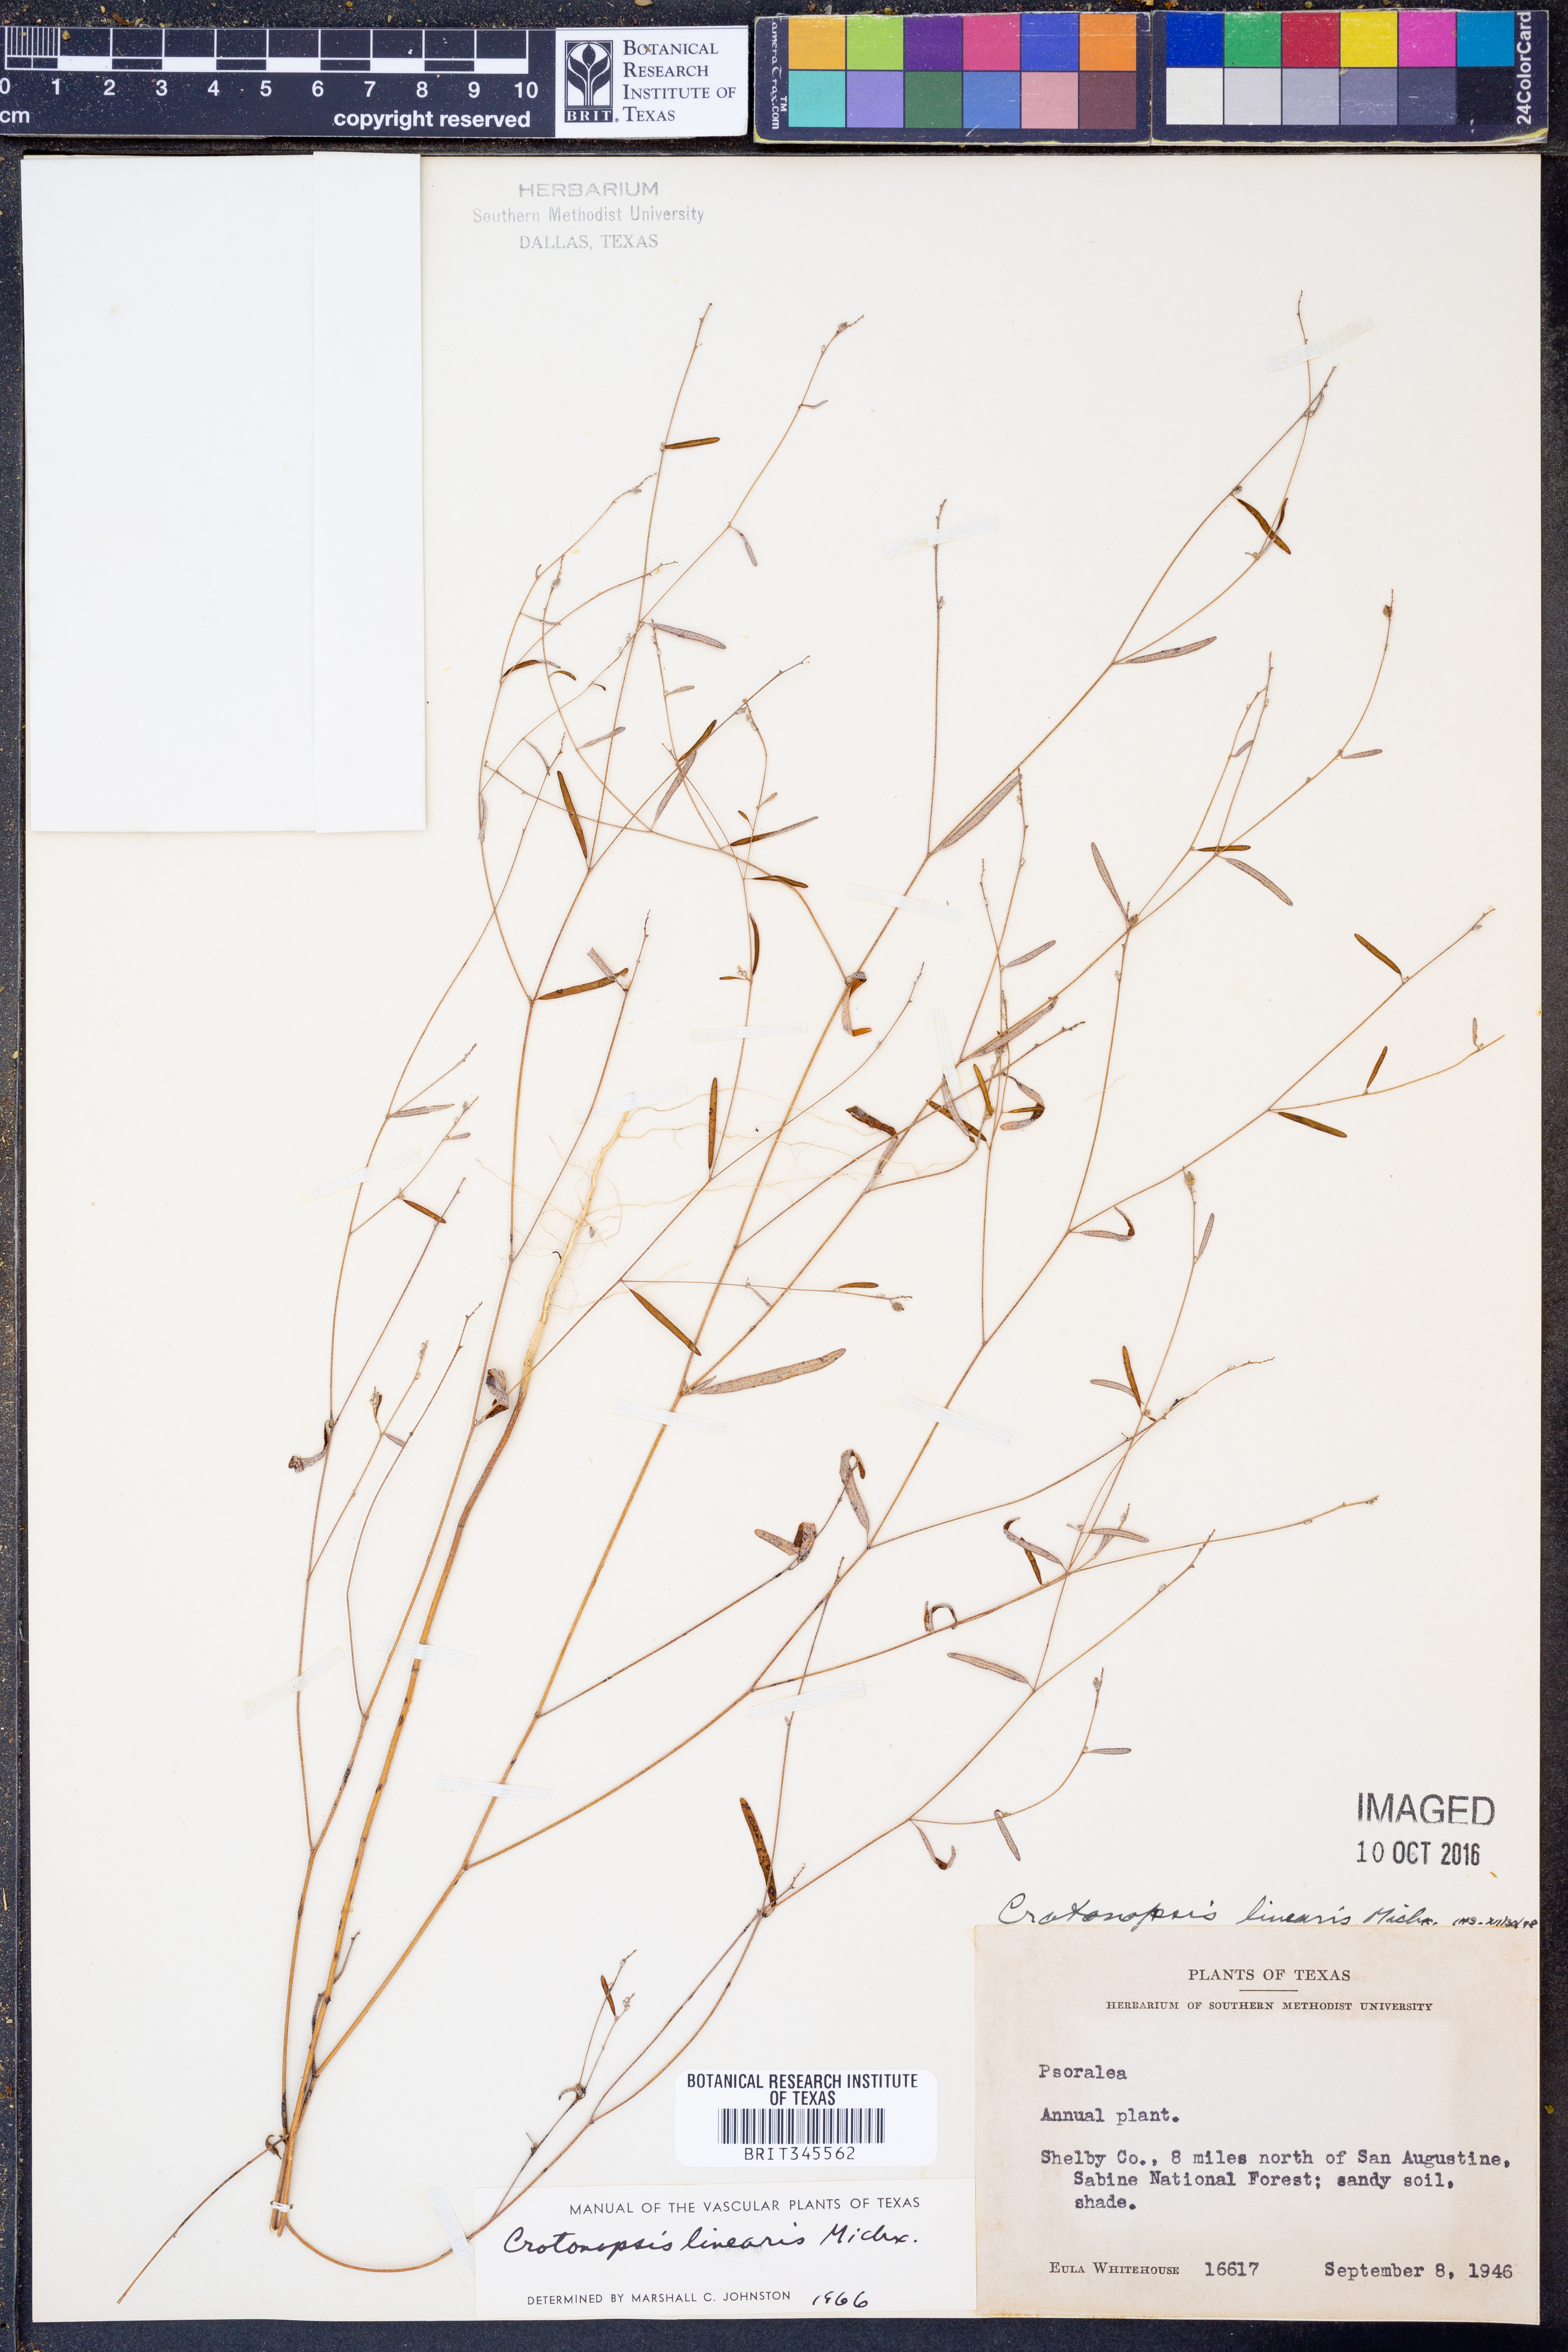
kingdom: Plantae
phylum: Tracheophyta
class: Magnoliopsida
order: Malpighiales
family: Euphorbiaceae
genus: Croton
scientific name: Croton michauxii
